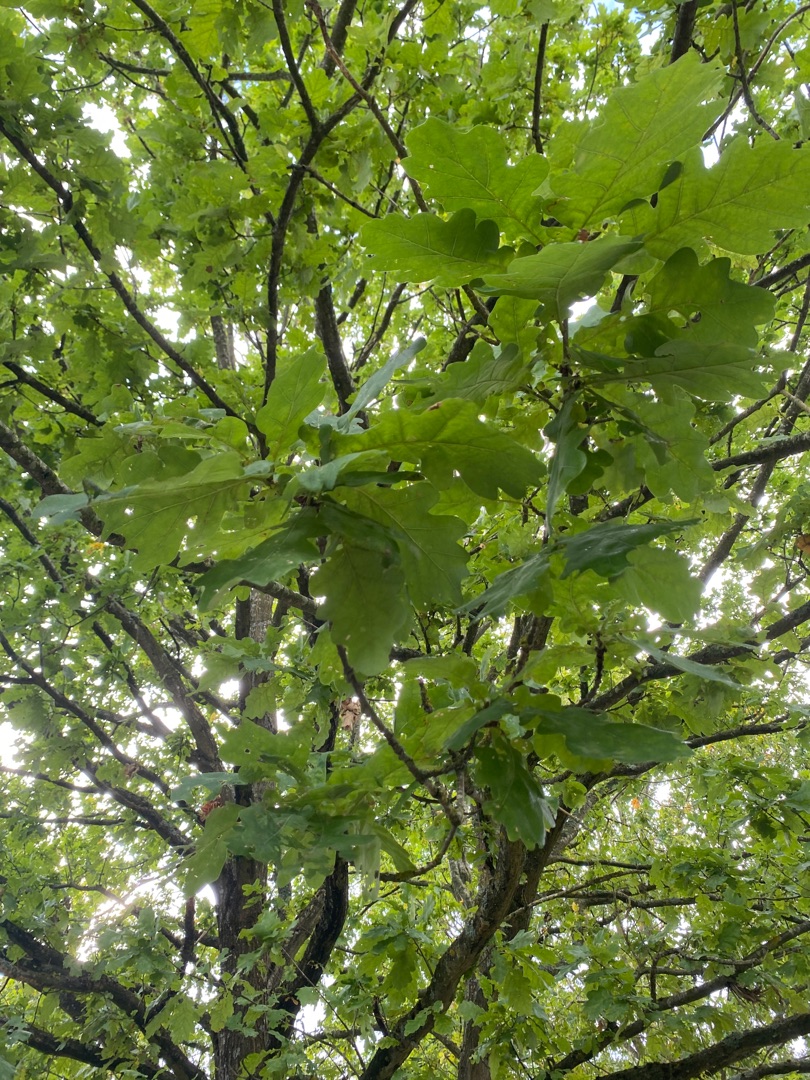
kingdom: Plantae
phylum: Tracheophyta
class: Magnoliopsida
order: Fagales
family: Fagaceae
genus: Quercus
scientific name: Quercus robur
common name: Stilk-eg/almindelig eg
